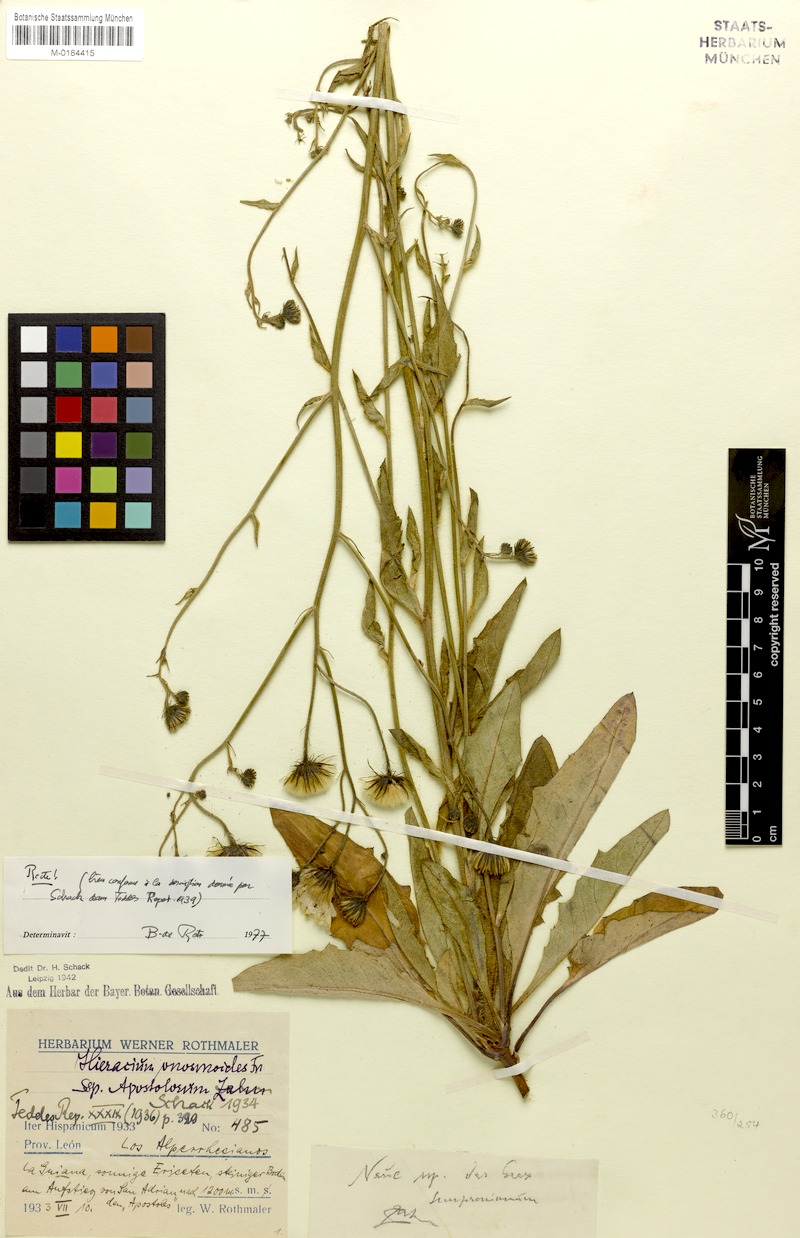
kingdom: Plantae
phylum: Tracheophyta
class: Magnoliopsida
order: Asterales
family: Asteraceae
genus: Hieracium
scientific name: Hieracium onosmoides
